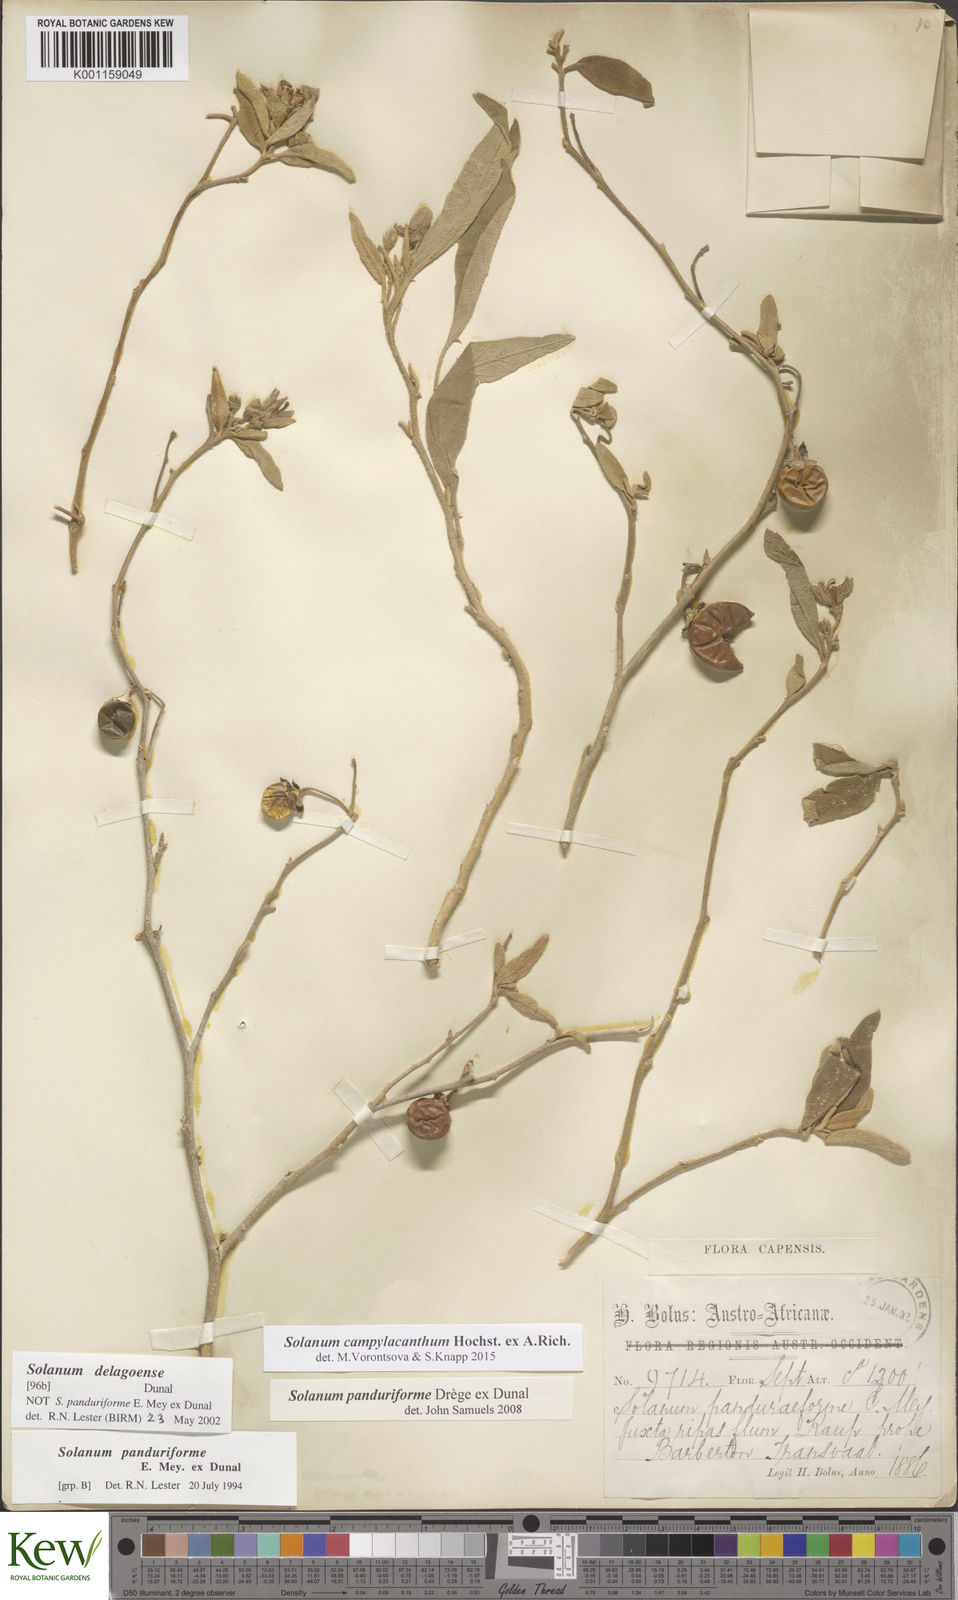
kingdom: Plantae
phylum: Tracheophyta
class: Magnoliopsida
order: Solanales
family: Solanaceae
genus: Solanum
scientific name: Solanum campylacanthum
